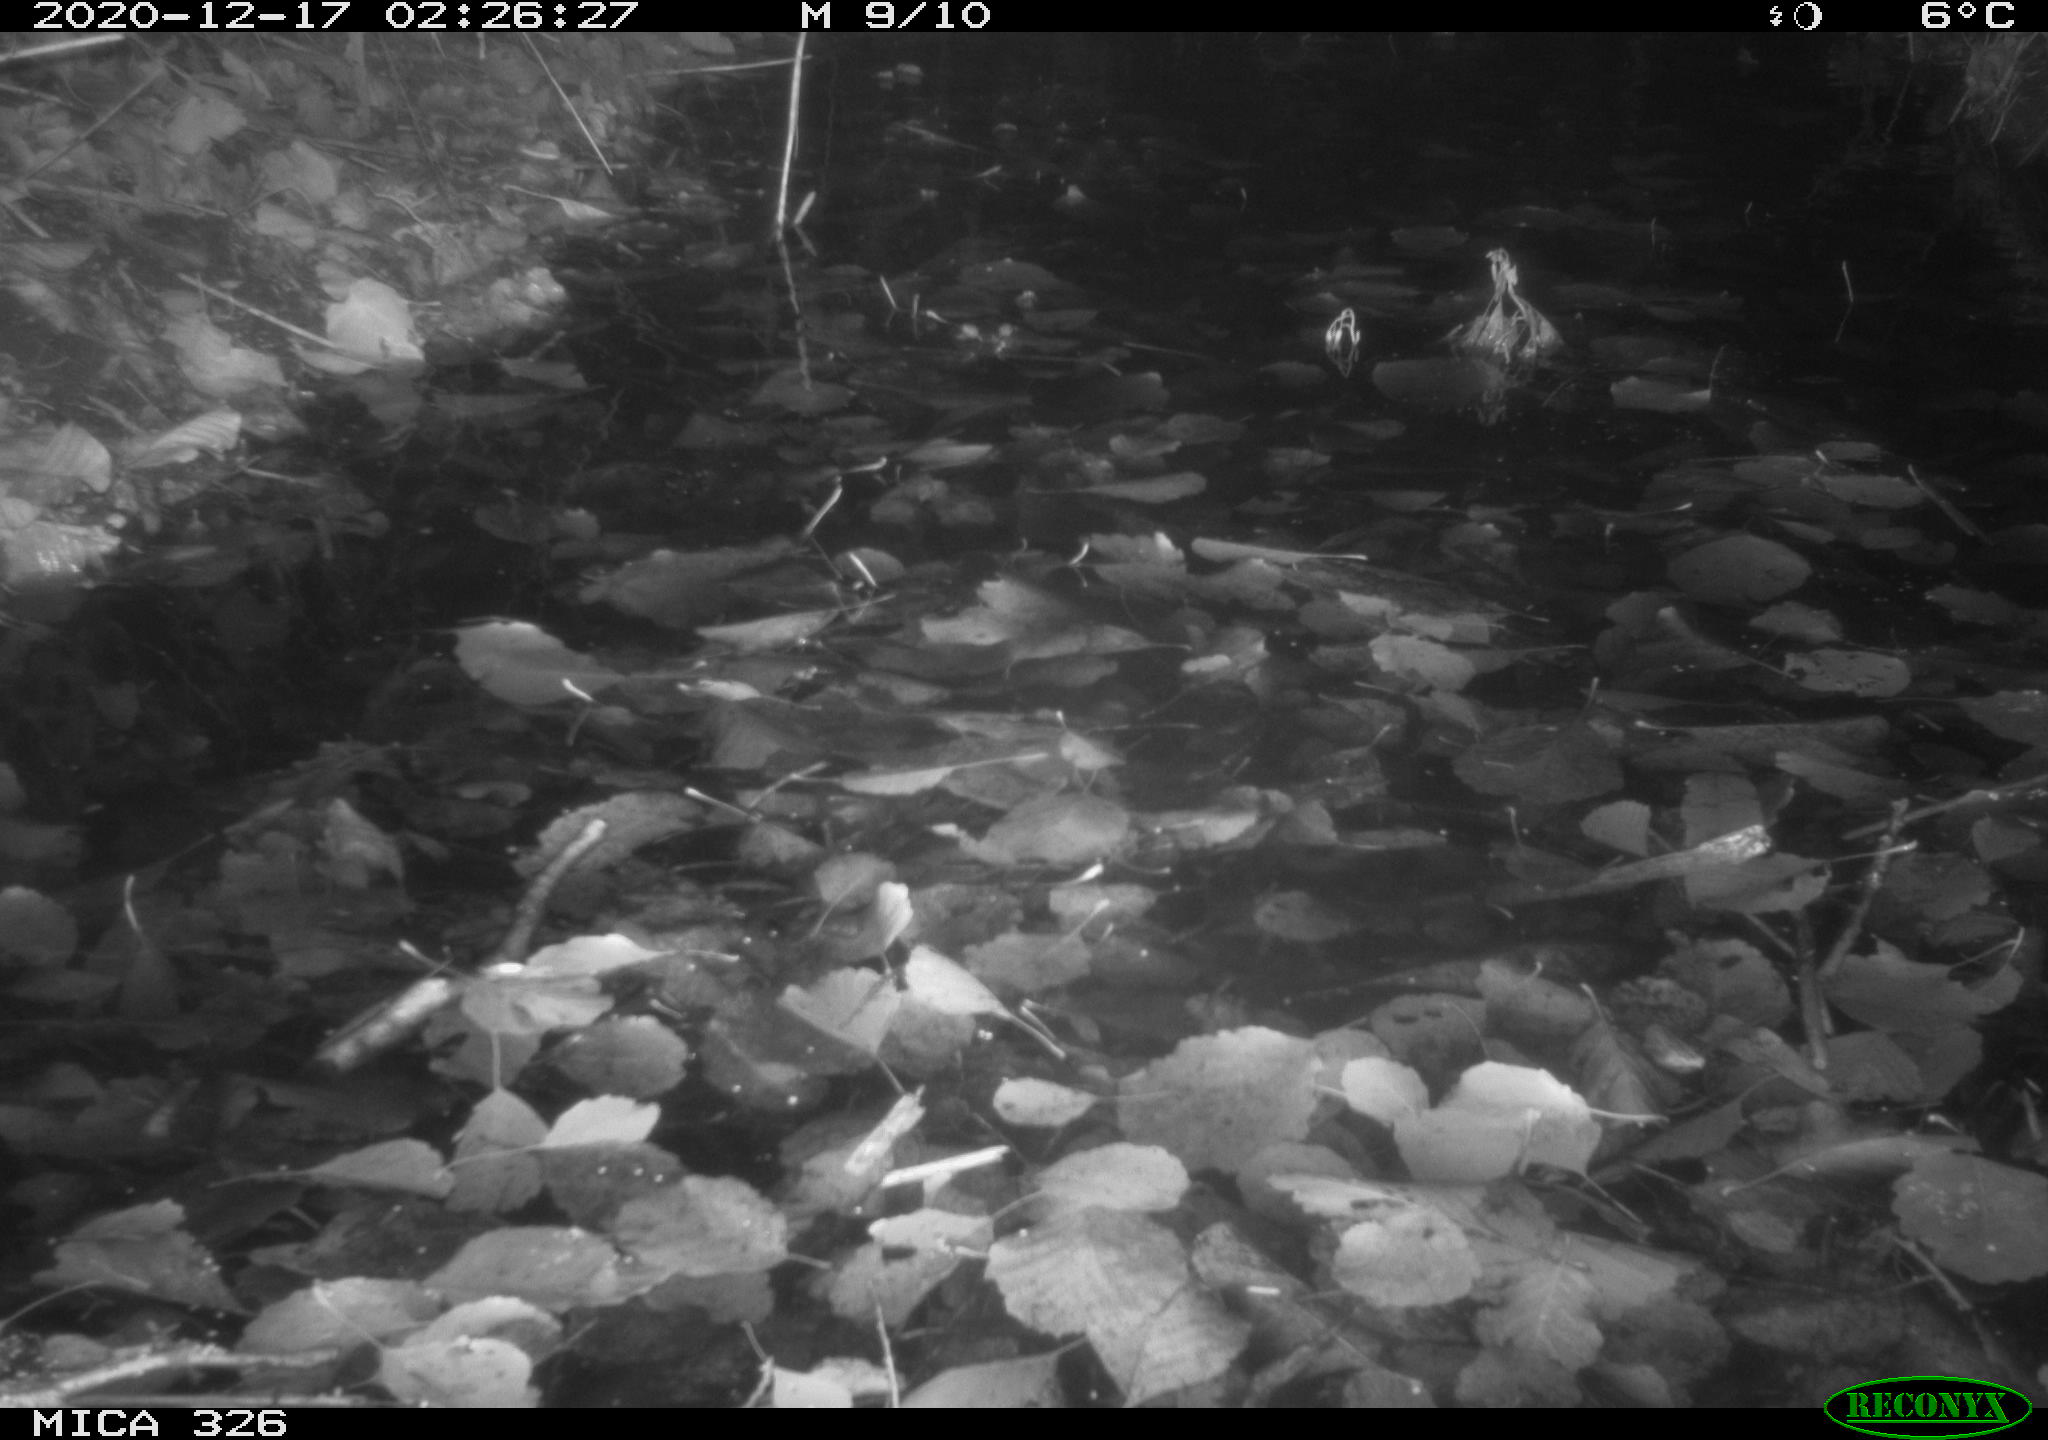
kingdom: Animalia
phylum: Chordata
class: Mammalia
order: Carnivora
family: Mustelidae
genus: Lutra
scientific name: Lutra lutra
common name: European otter
